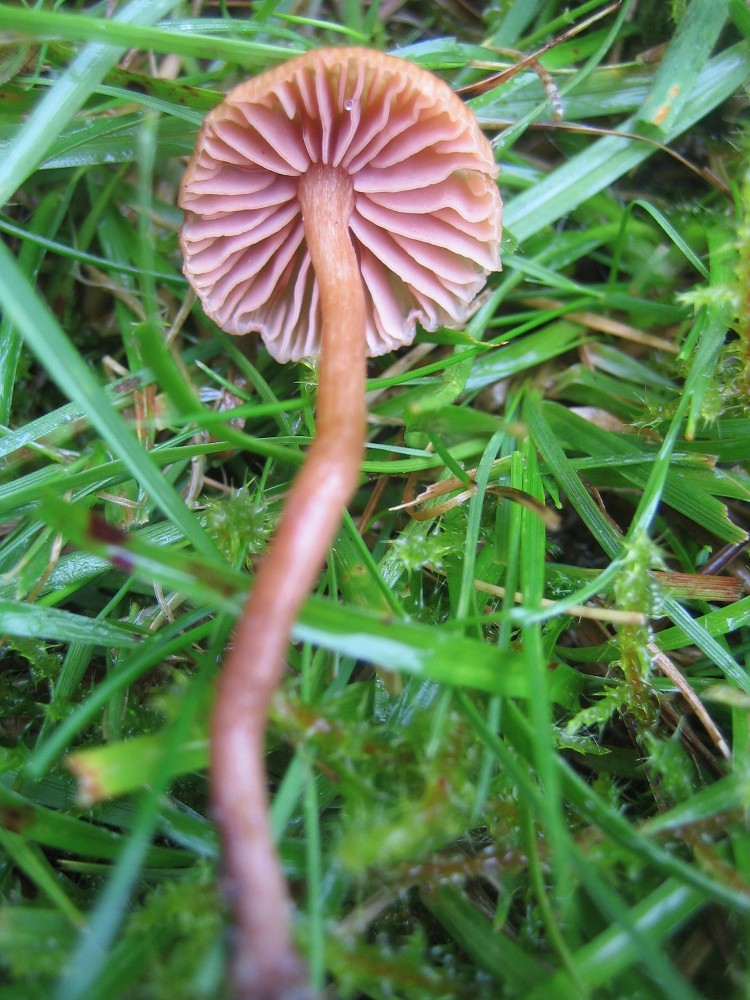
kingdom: Fungi
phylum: Basidiomycota
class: Agaricomycetes
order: Agaricales
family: Hydnangiaceae
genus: Laccaria
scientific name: Laccaria
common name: ametysthat
